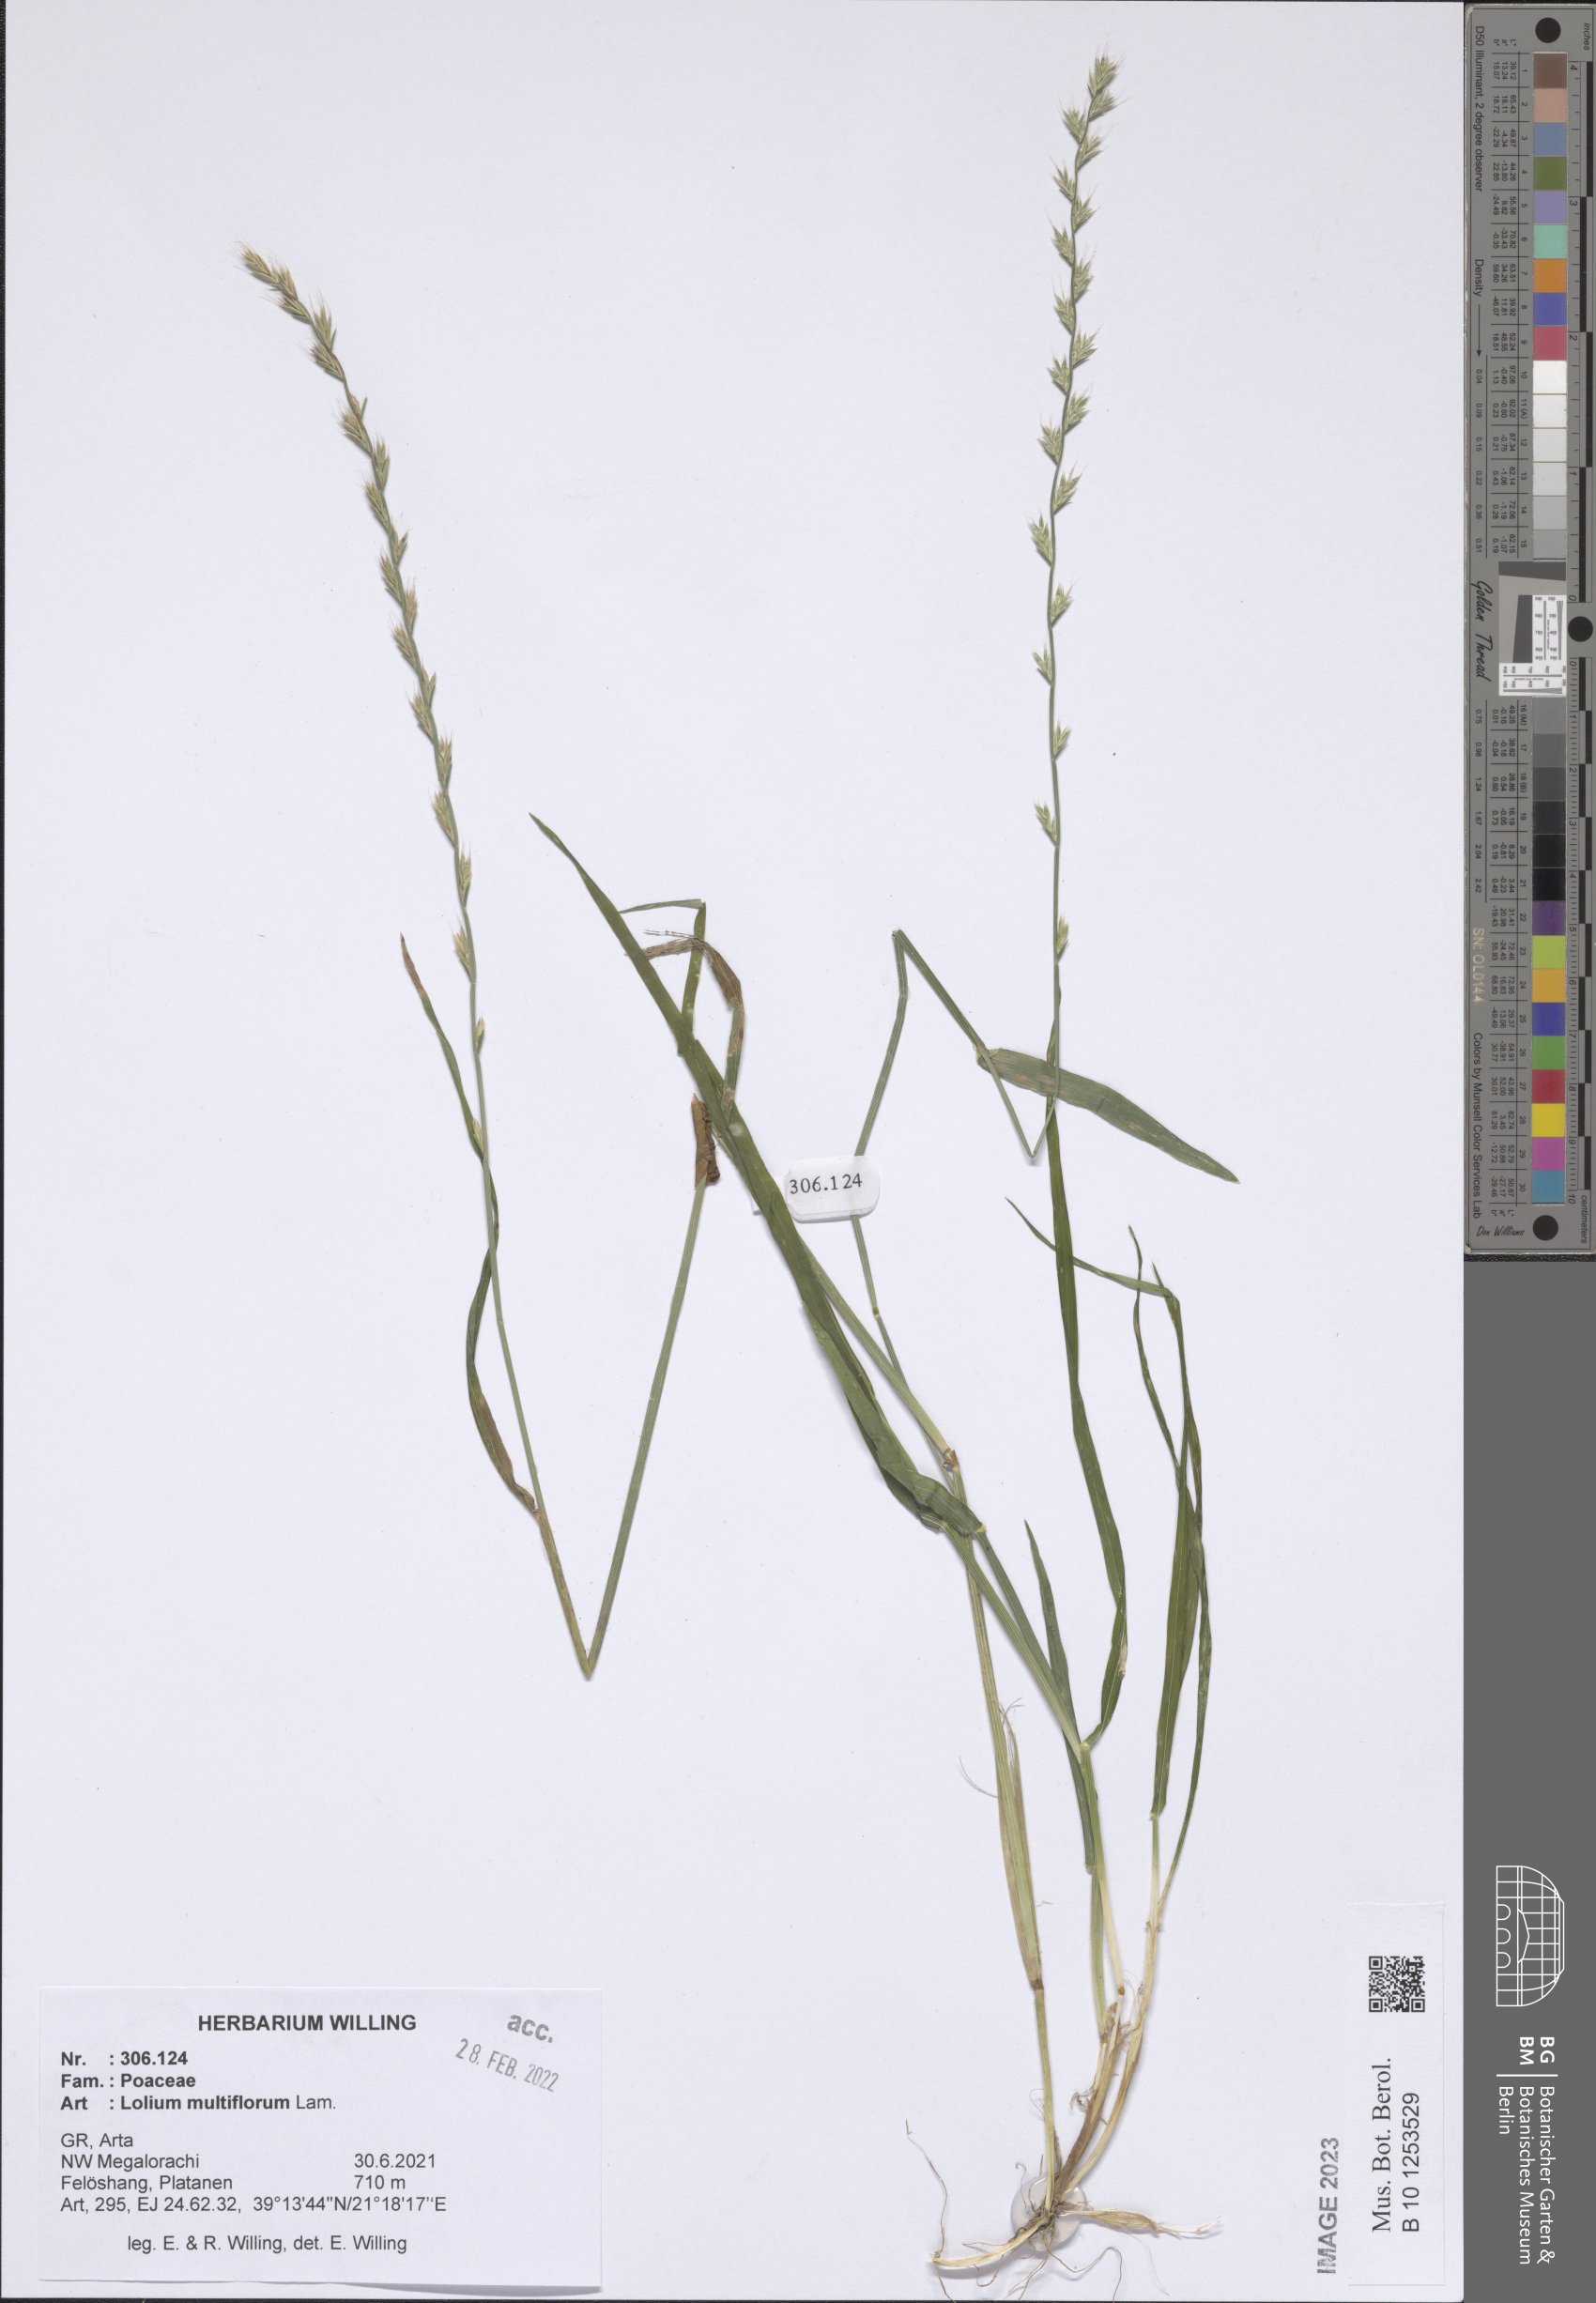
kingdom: Plantae
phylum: Tracheophyta
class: Liliopsida
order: Poales
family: Poaceae
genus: Lolium
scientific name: Lolium multiflorum
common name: Annual ryegrass
